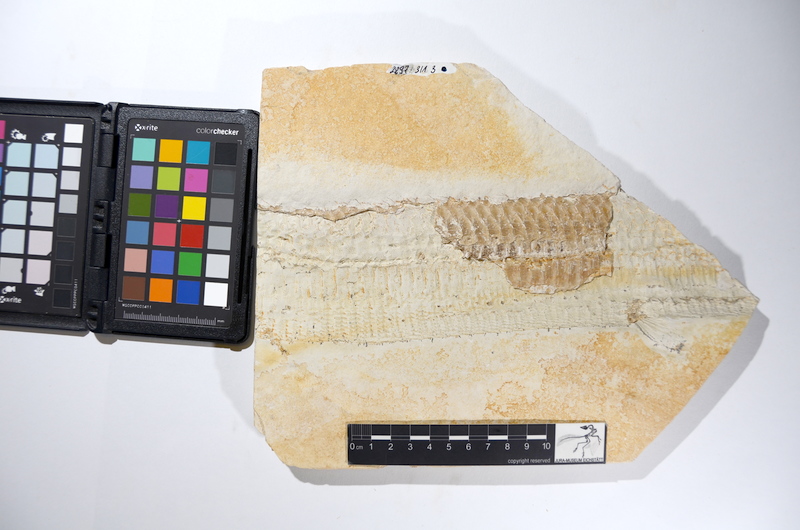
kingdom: Animalia
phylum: Chordata
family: Aspidorhynchidae
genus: Aspidorhynchus
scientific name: Aspidorhynchus acutirostris
